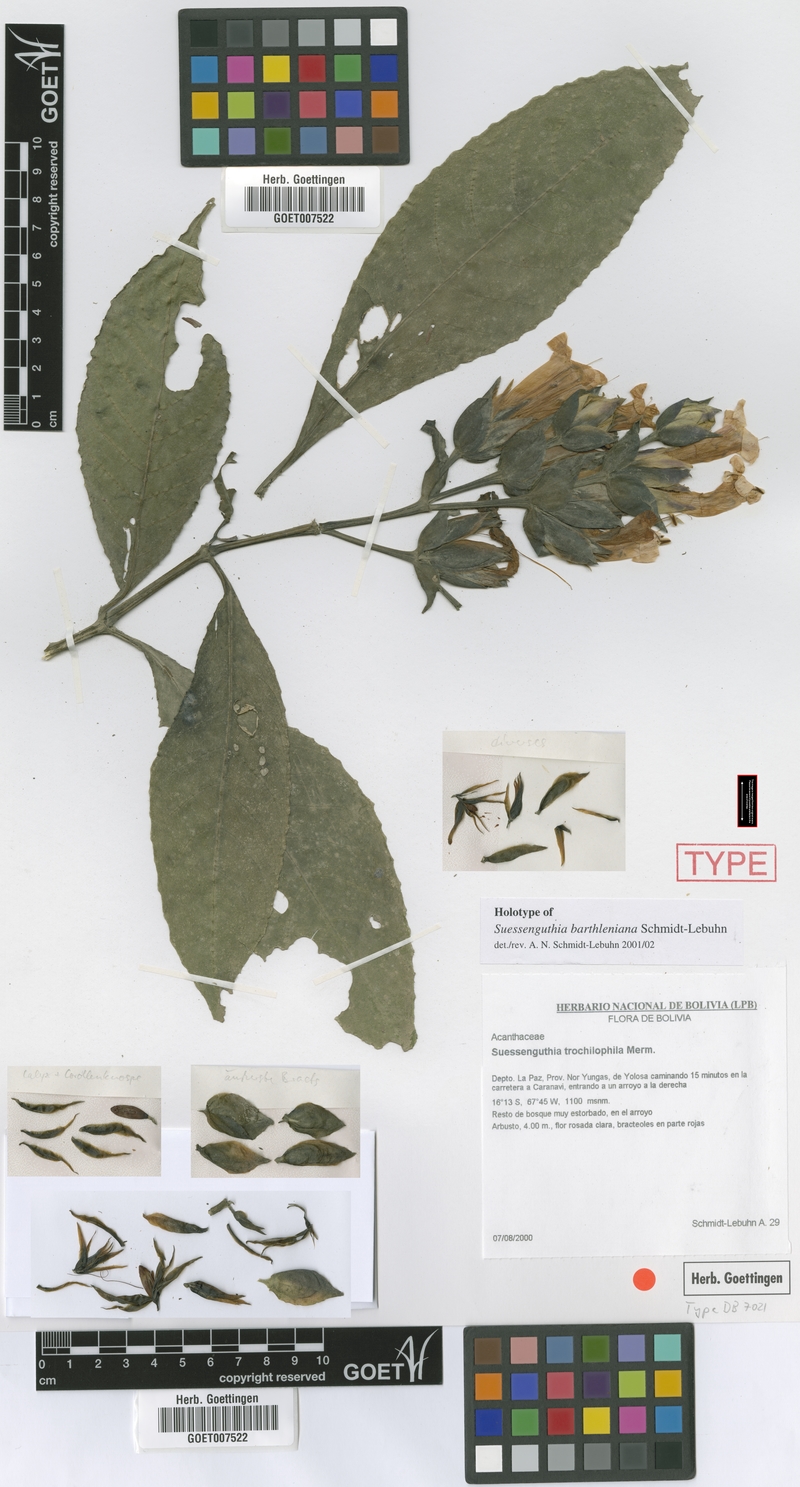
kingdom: Plantae
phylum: Tracheophyta
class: Magnoliopsida
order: Lamiales
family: Acanthaceae
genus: Suessenguthia
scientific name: Suessenguthia barthleniana
